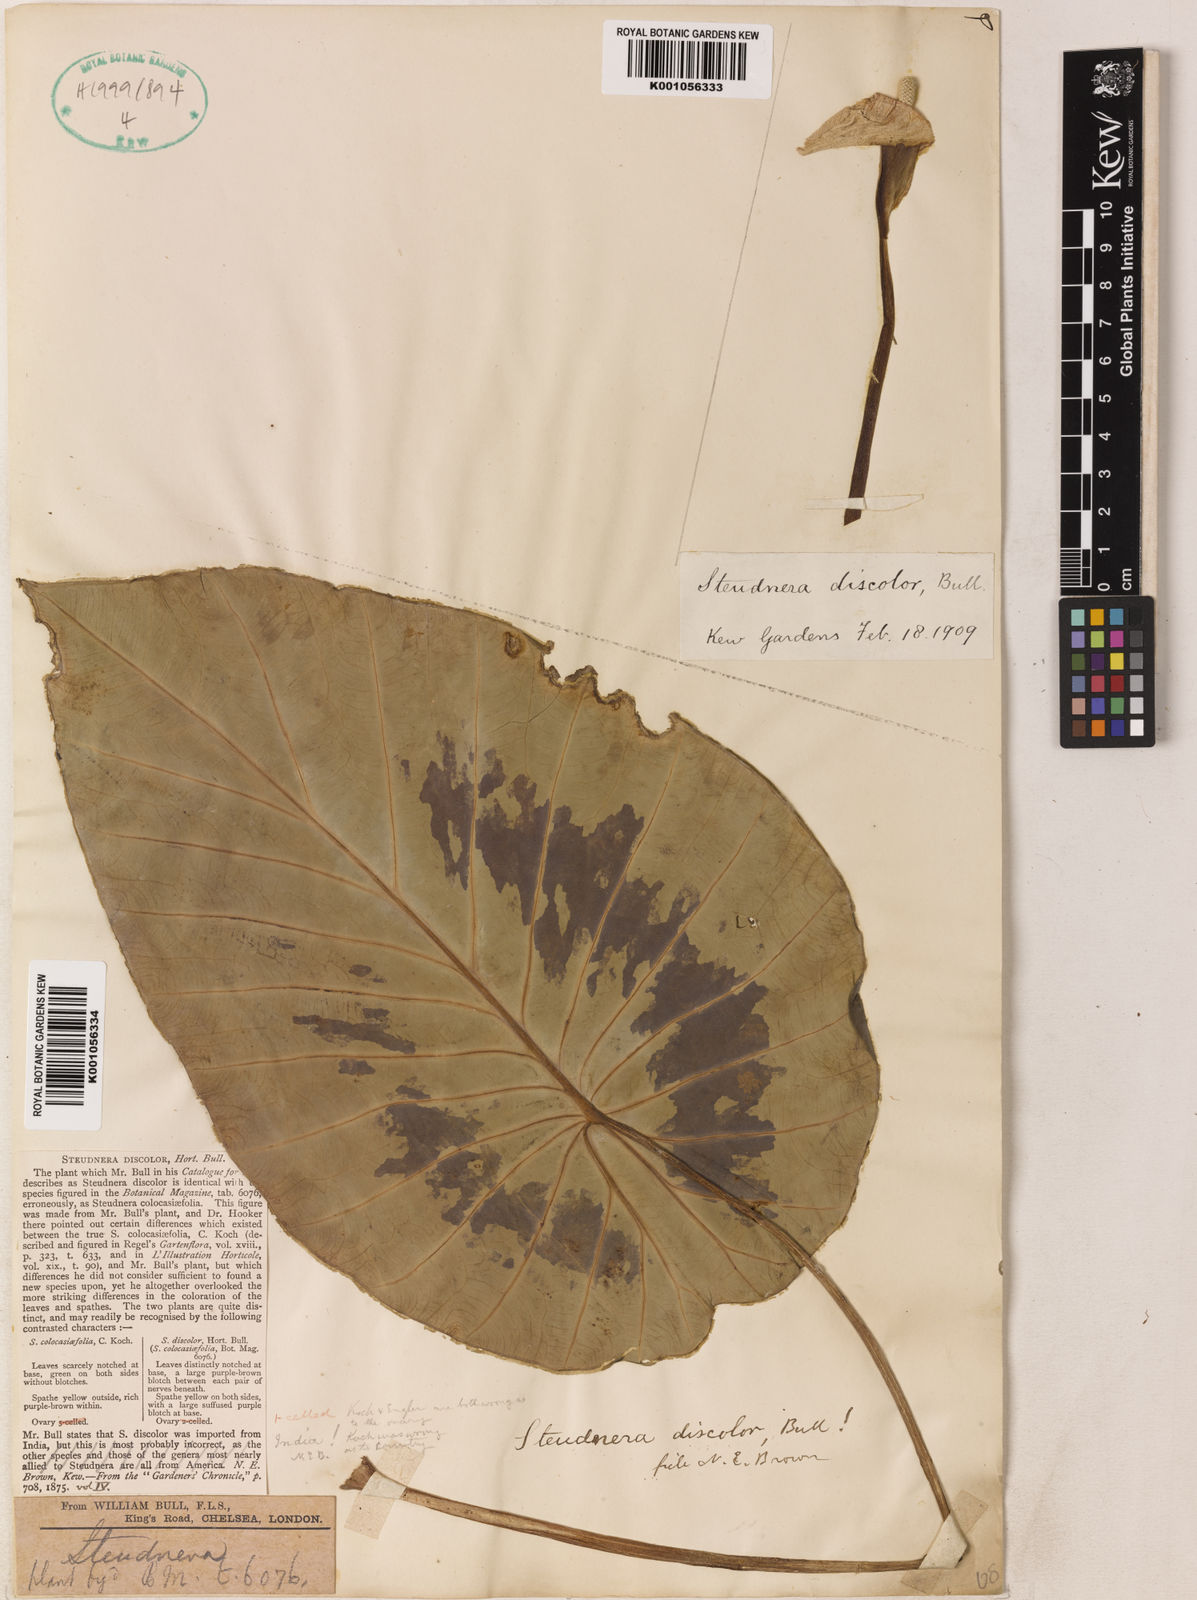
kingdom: Plantae
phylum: Tracheophyta
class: Liliopsida
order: Alismatales
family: Araceae
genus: Steudnera
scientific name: Steudnera
